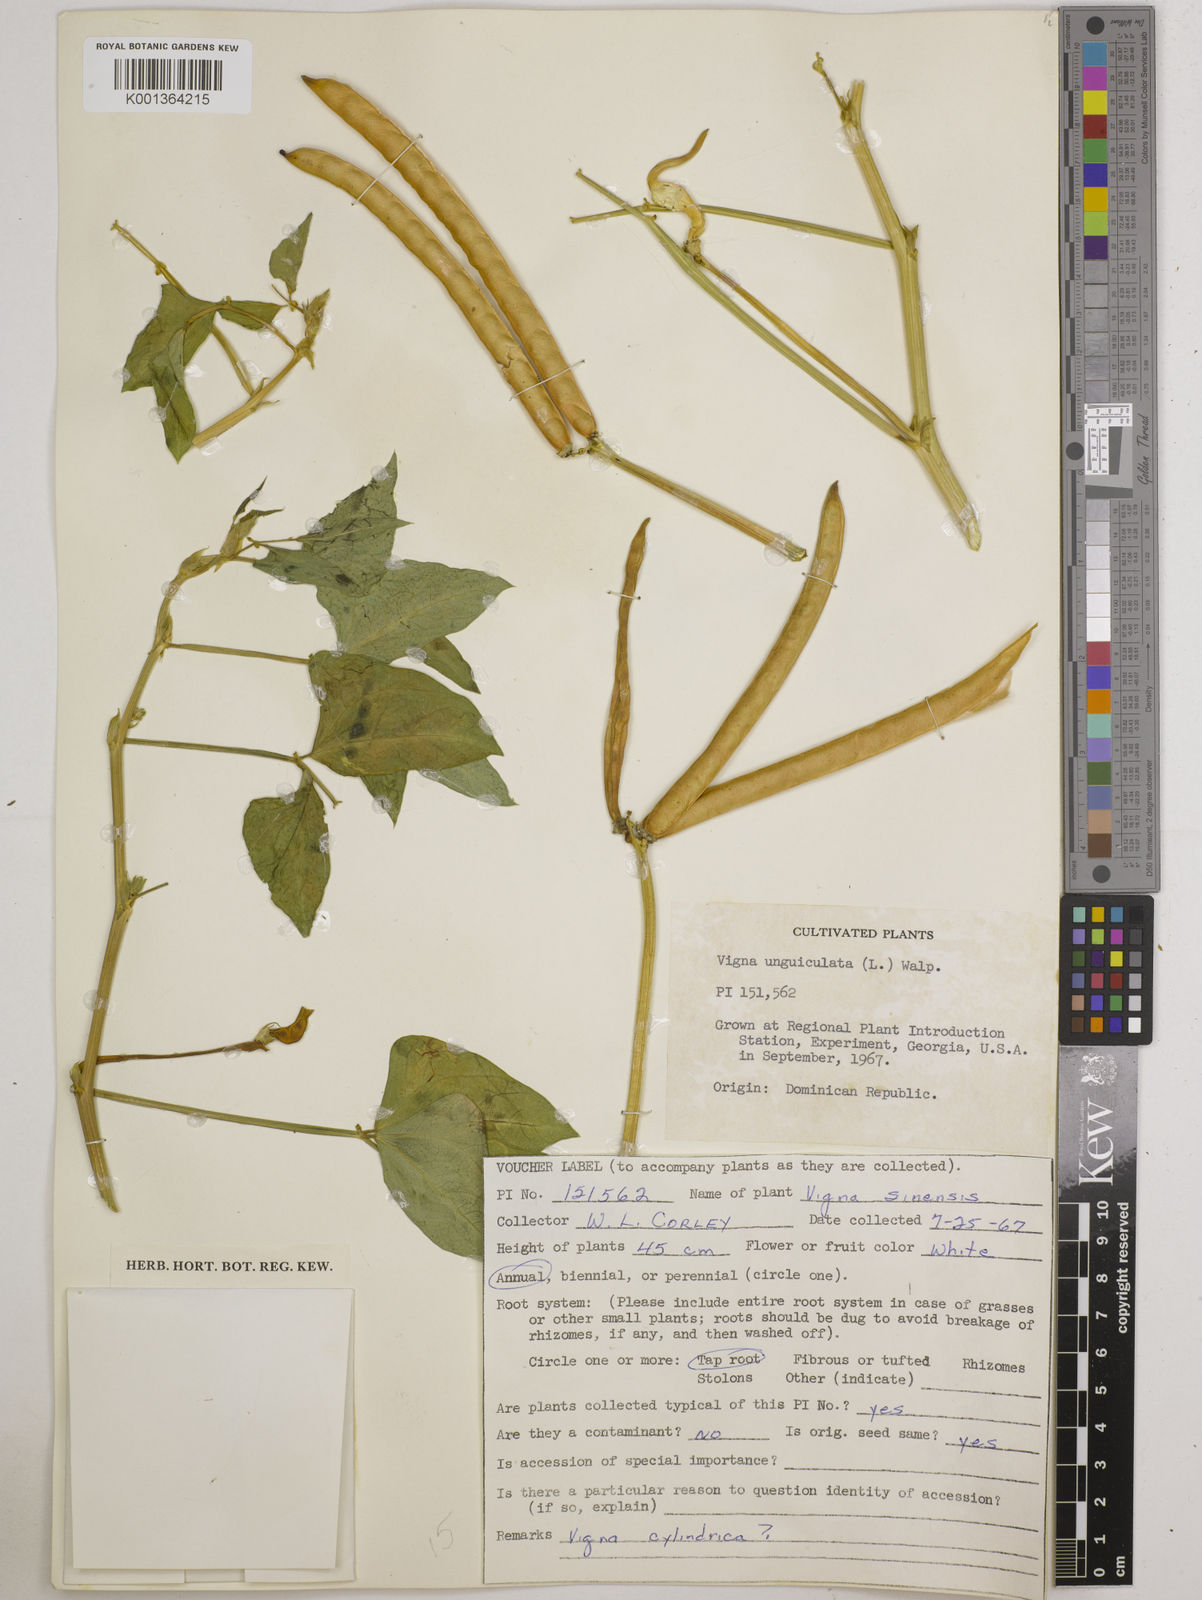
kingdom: Plantae
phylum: Tracheophyta
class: Magnoliopsida
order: Fabales
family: Fabaceae
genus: Vigna
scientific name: Vigna
